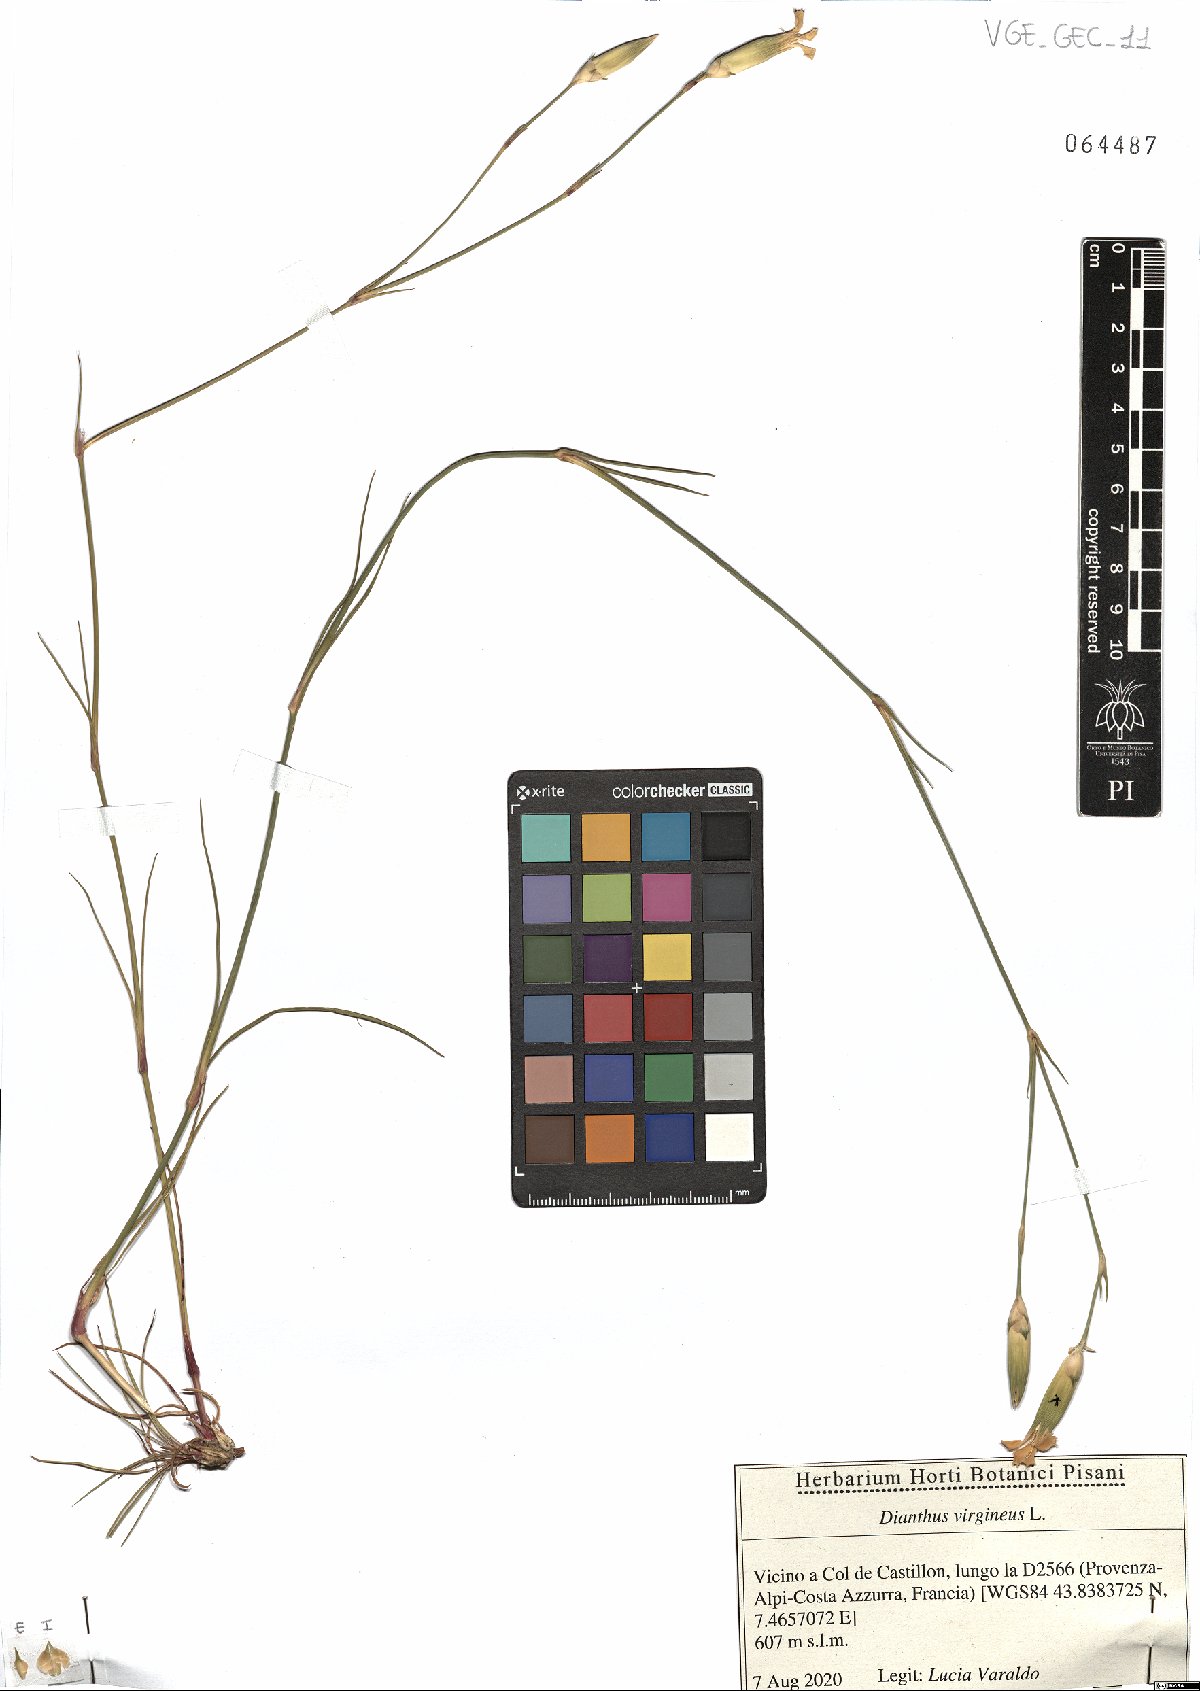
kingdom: Plantae
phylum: Tracheophyta
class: Magnoliopsida
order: Caryophyllales
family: Caryophyllaceae
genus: Dianthus
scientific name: Dianthus virgineus
